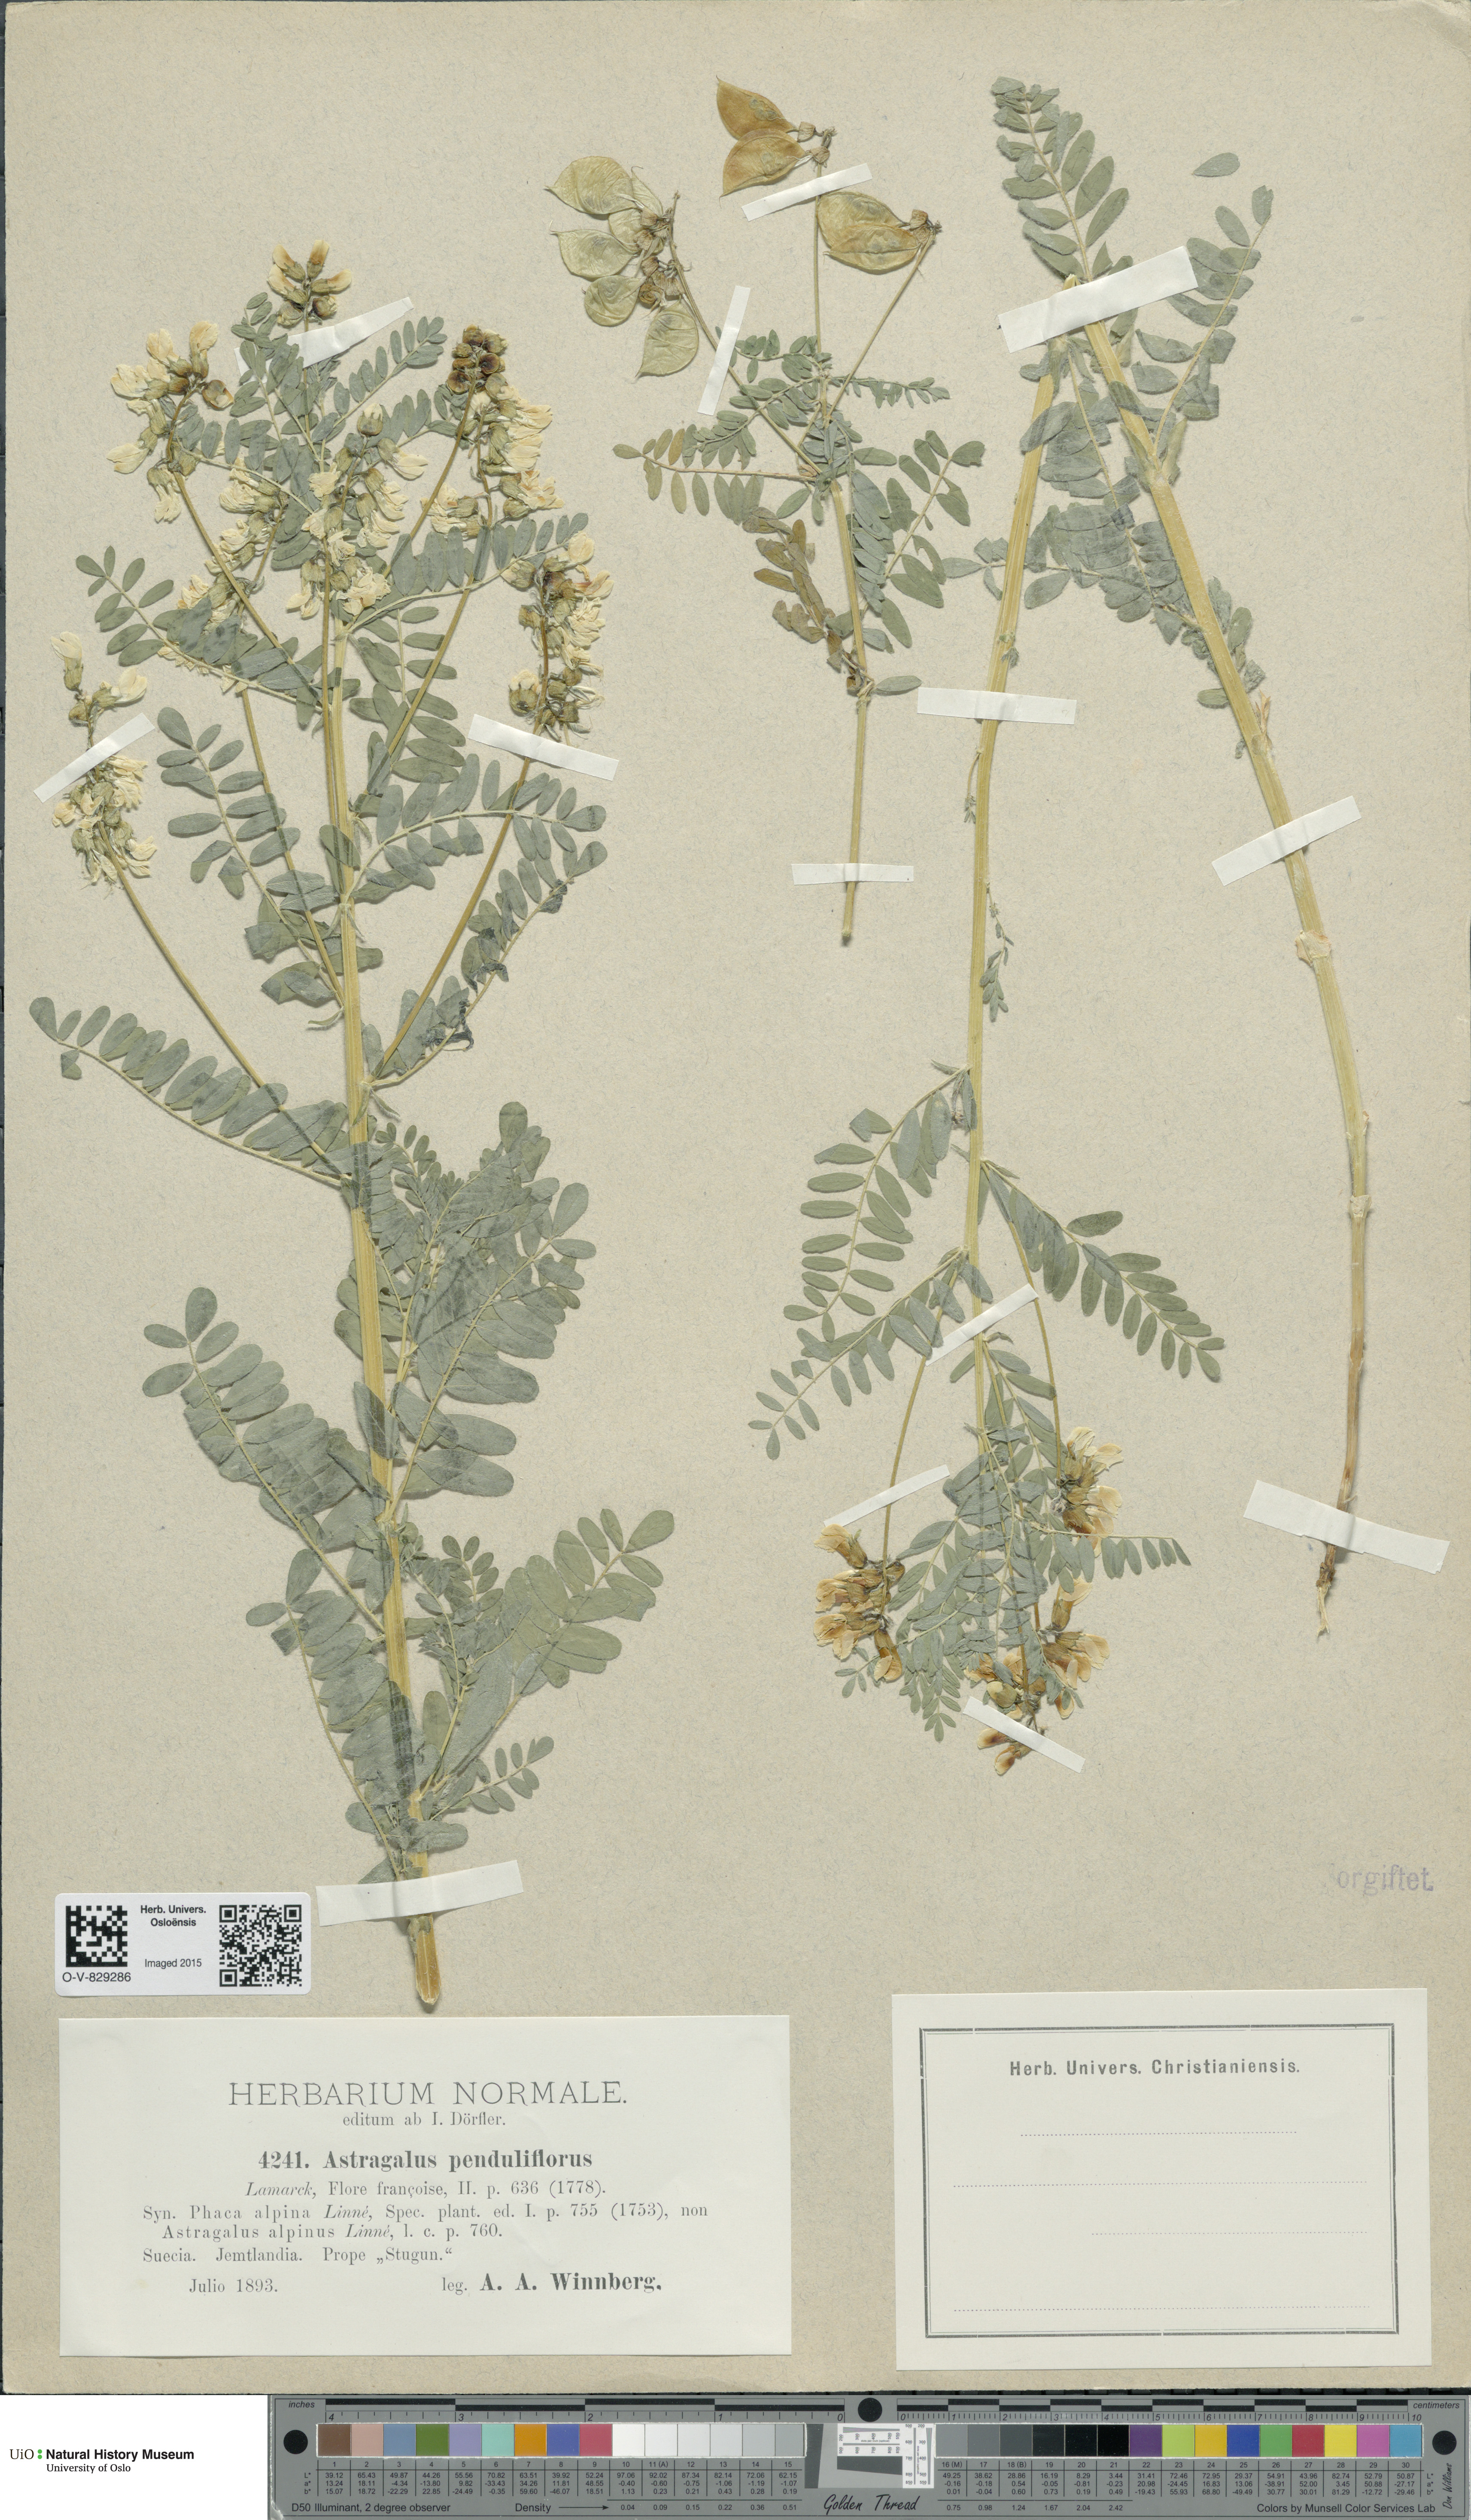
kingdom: Plantae
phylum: Tracheophyta
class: Magnoliopsida
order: Fabales
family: Fabaceae
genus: Astragalus
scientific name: Astragalus penduliflorus
